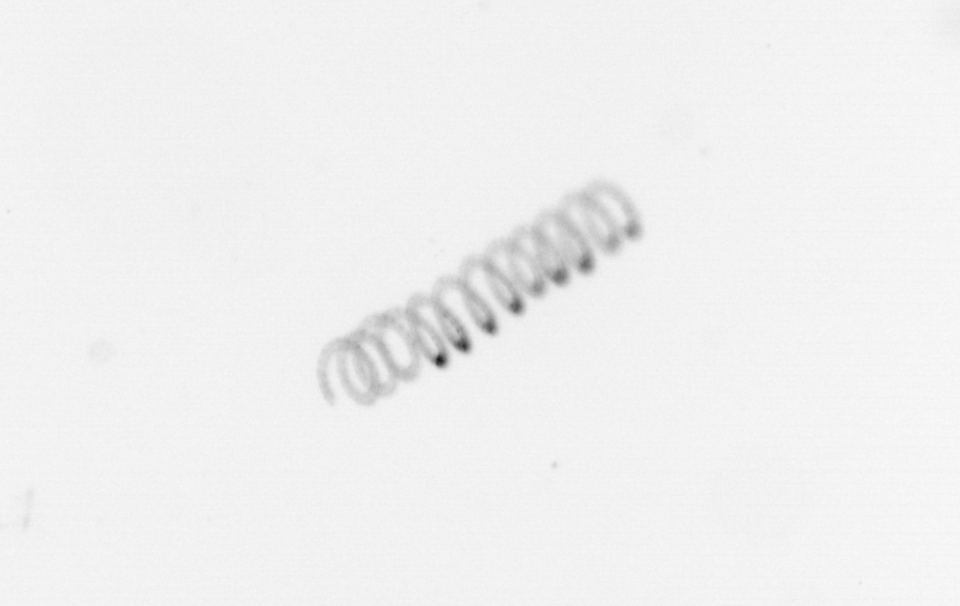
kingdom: Chromista
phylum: Ochrophyta
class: Bacillariophyceae
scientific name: Bacillariophyceae
